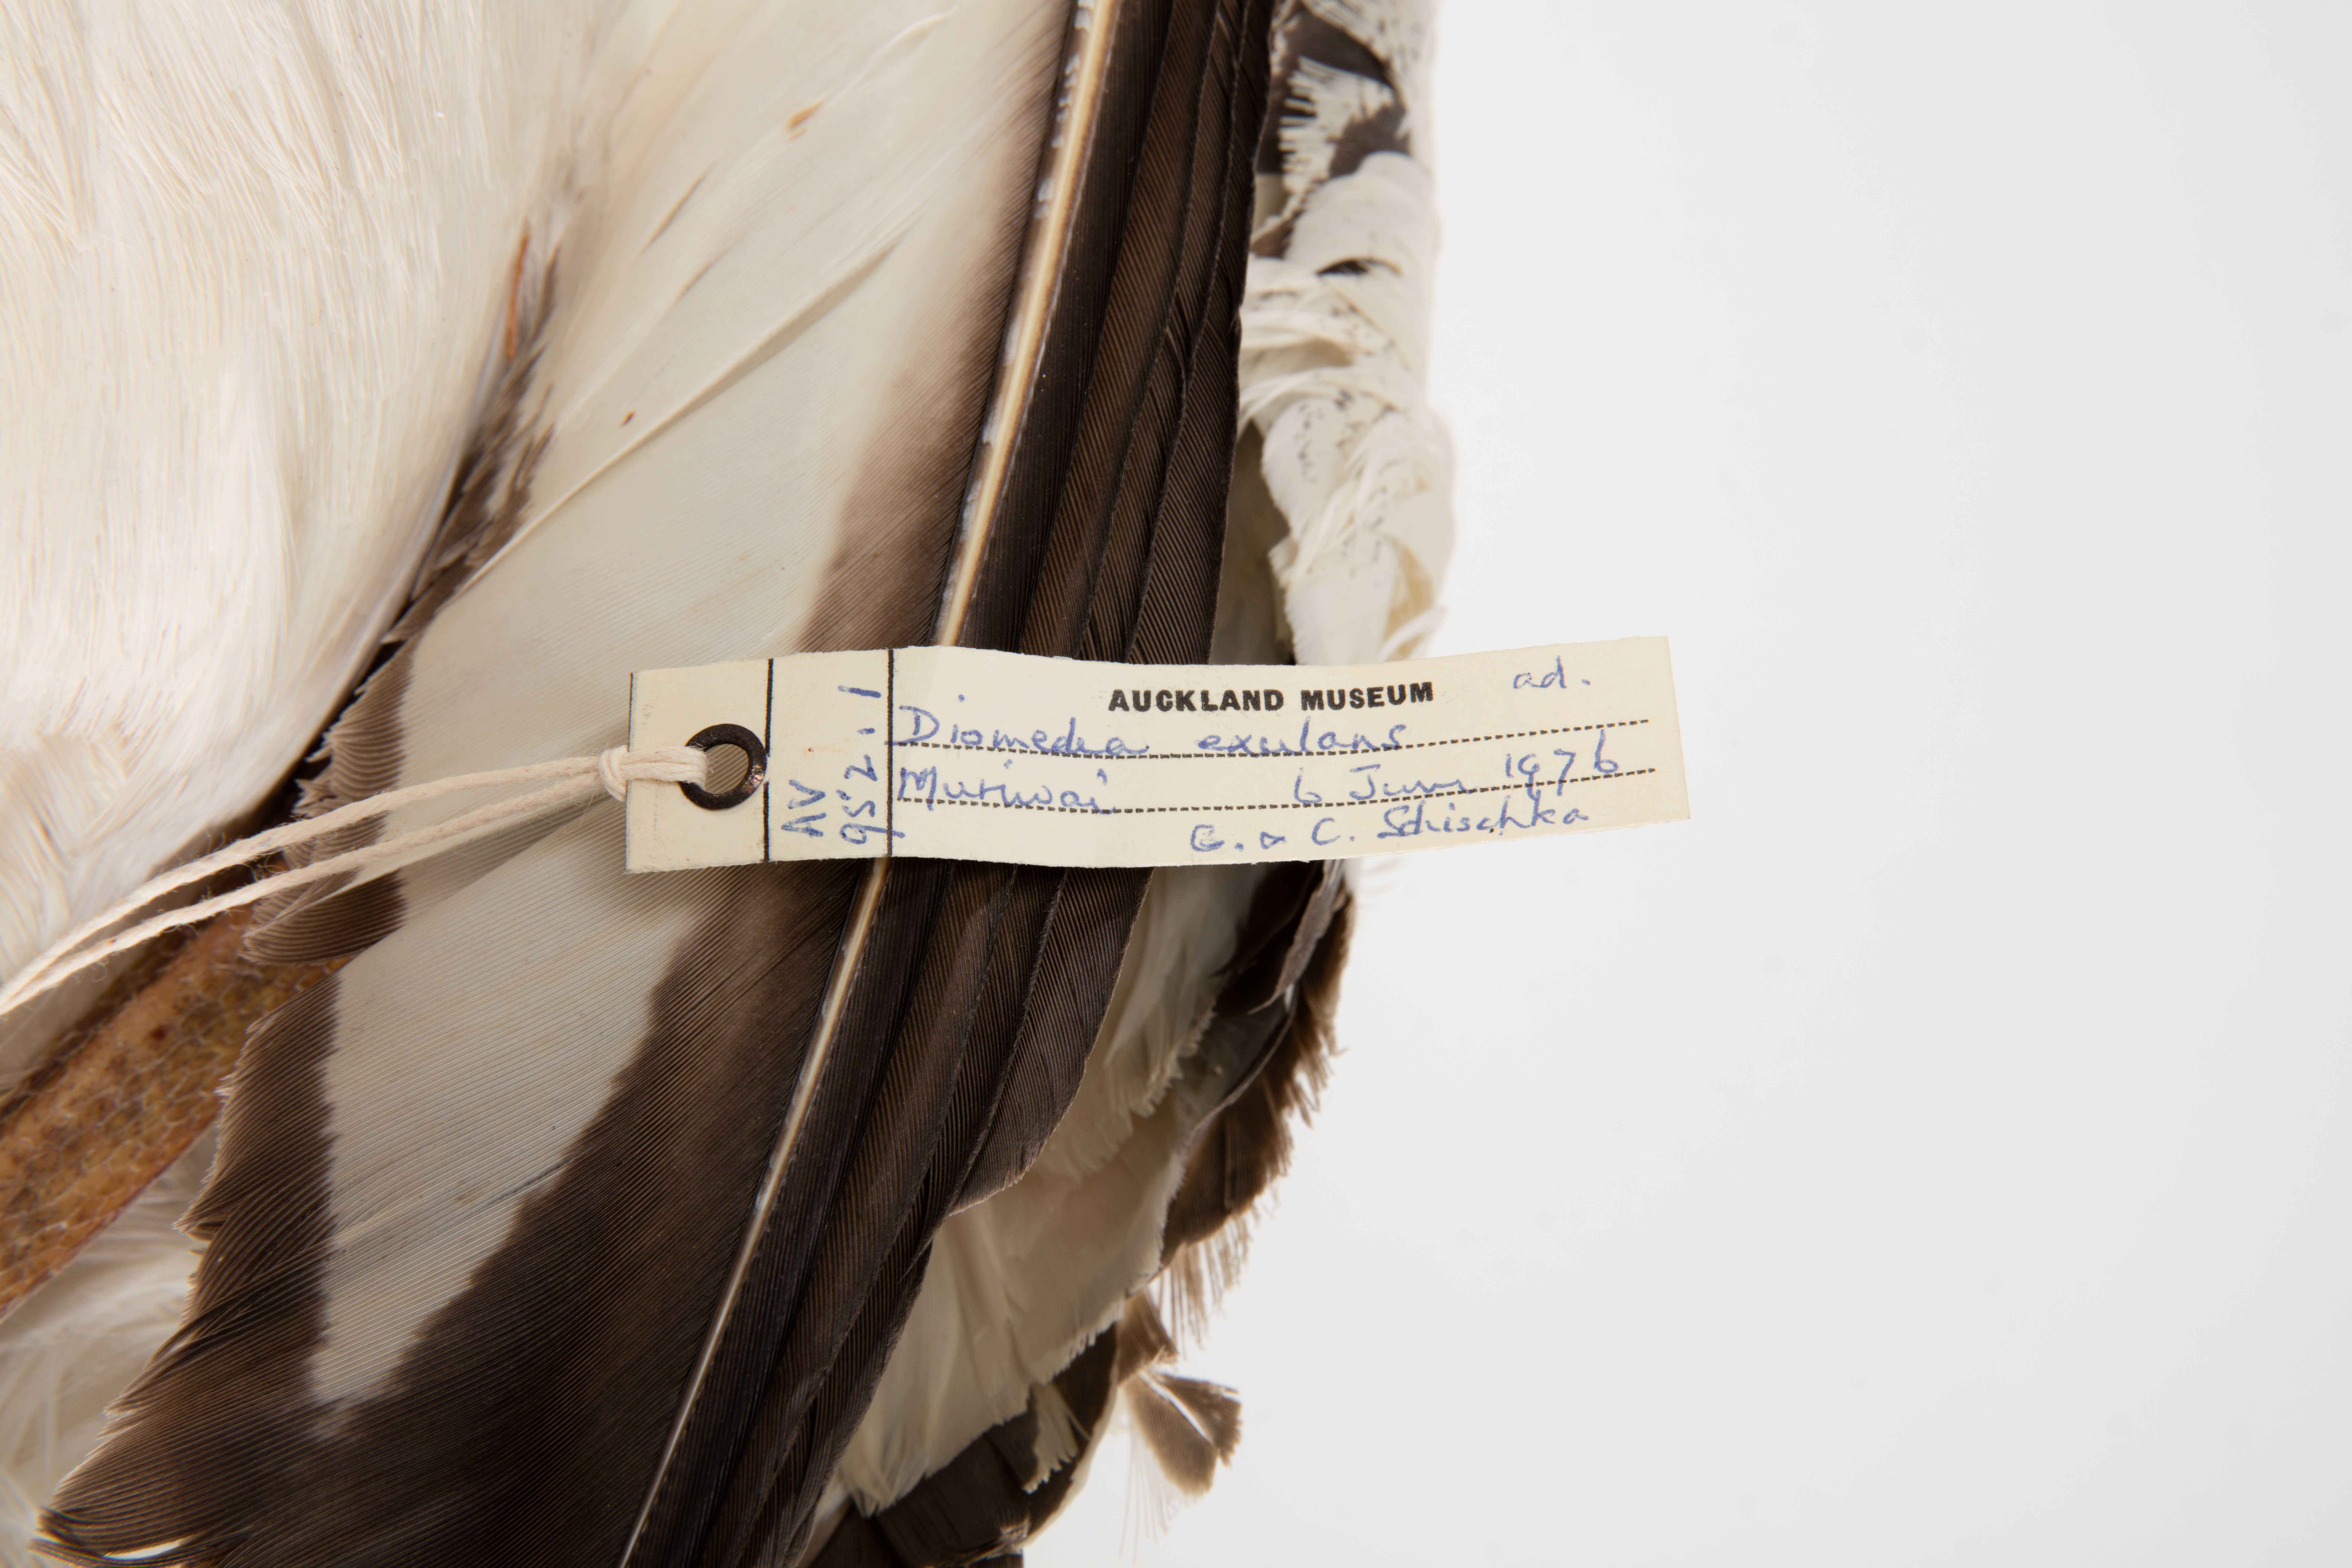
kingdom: Animalia
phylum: Chordata
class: Aves
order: Procellariiformes
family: Diomedeidae
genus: Diomedea
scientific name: Diomedea antipodensis
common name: Antipodean albatross
